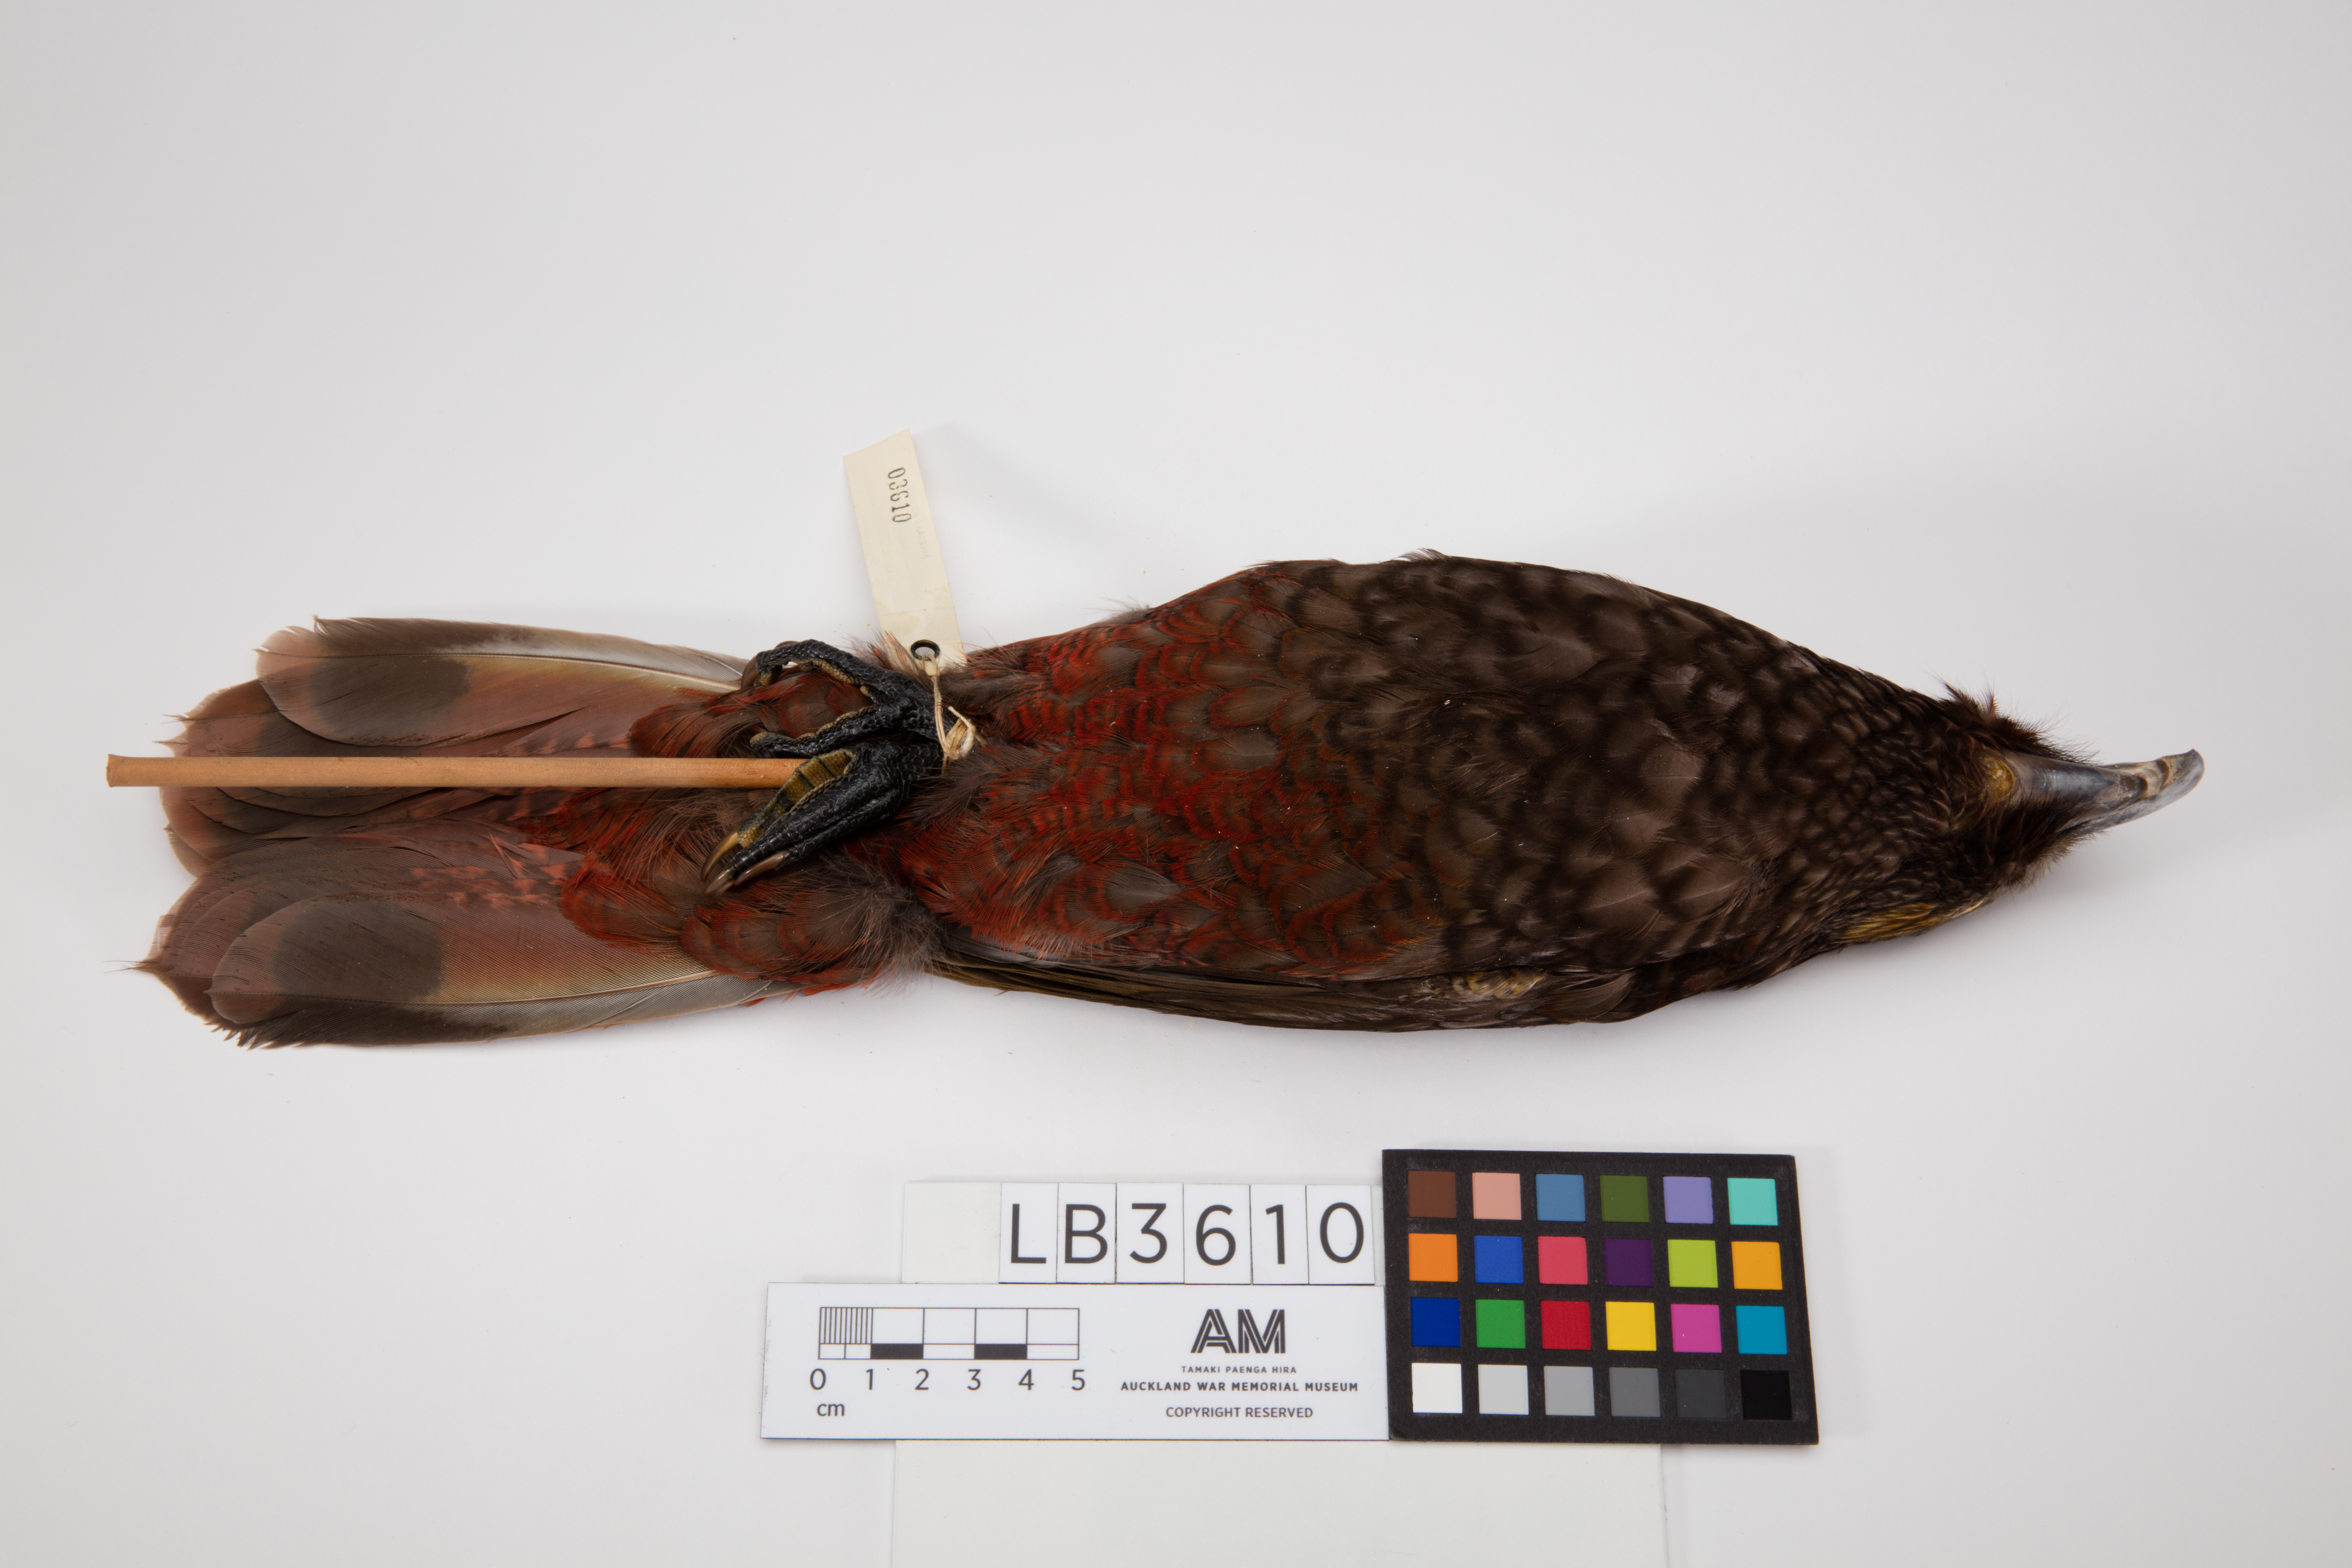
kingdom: Animalia
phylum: Chordata
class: Aves
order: Psittaciformes
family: Psittacidae
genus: Nestor
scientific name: Nestor meridionalis
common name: New zealand kaka
